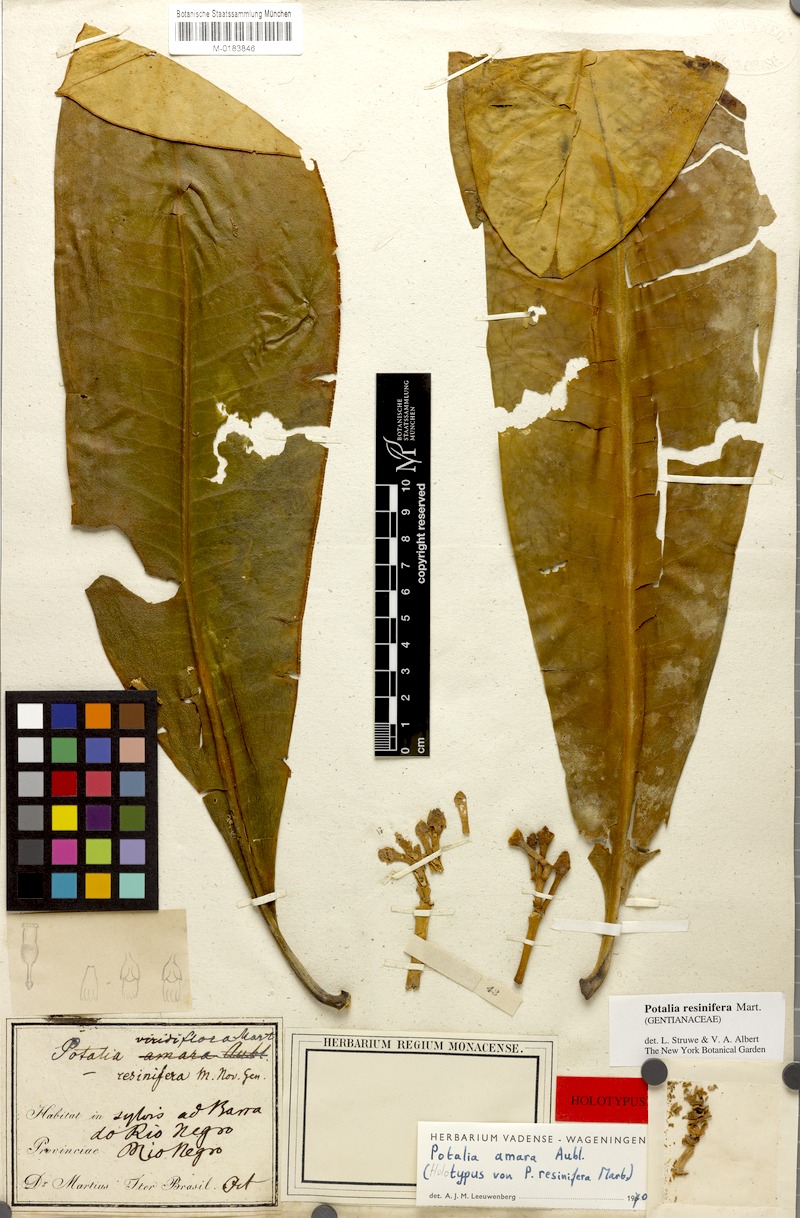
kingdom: Plantae
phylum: Tracheophyta
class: Magnoliopsida
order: Gentianales
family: Gentianaceae
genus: Potalia
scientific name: Potalia resinifera
